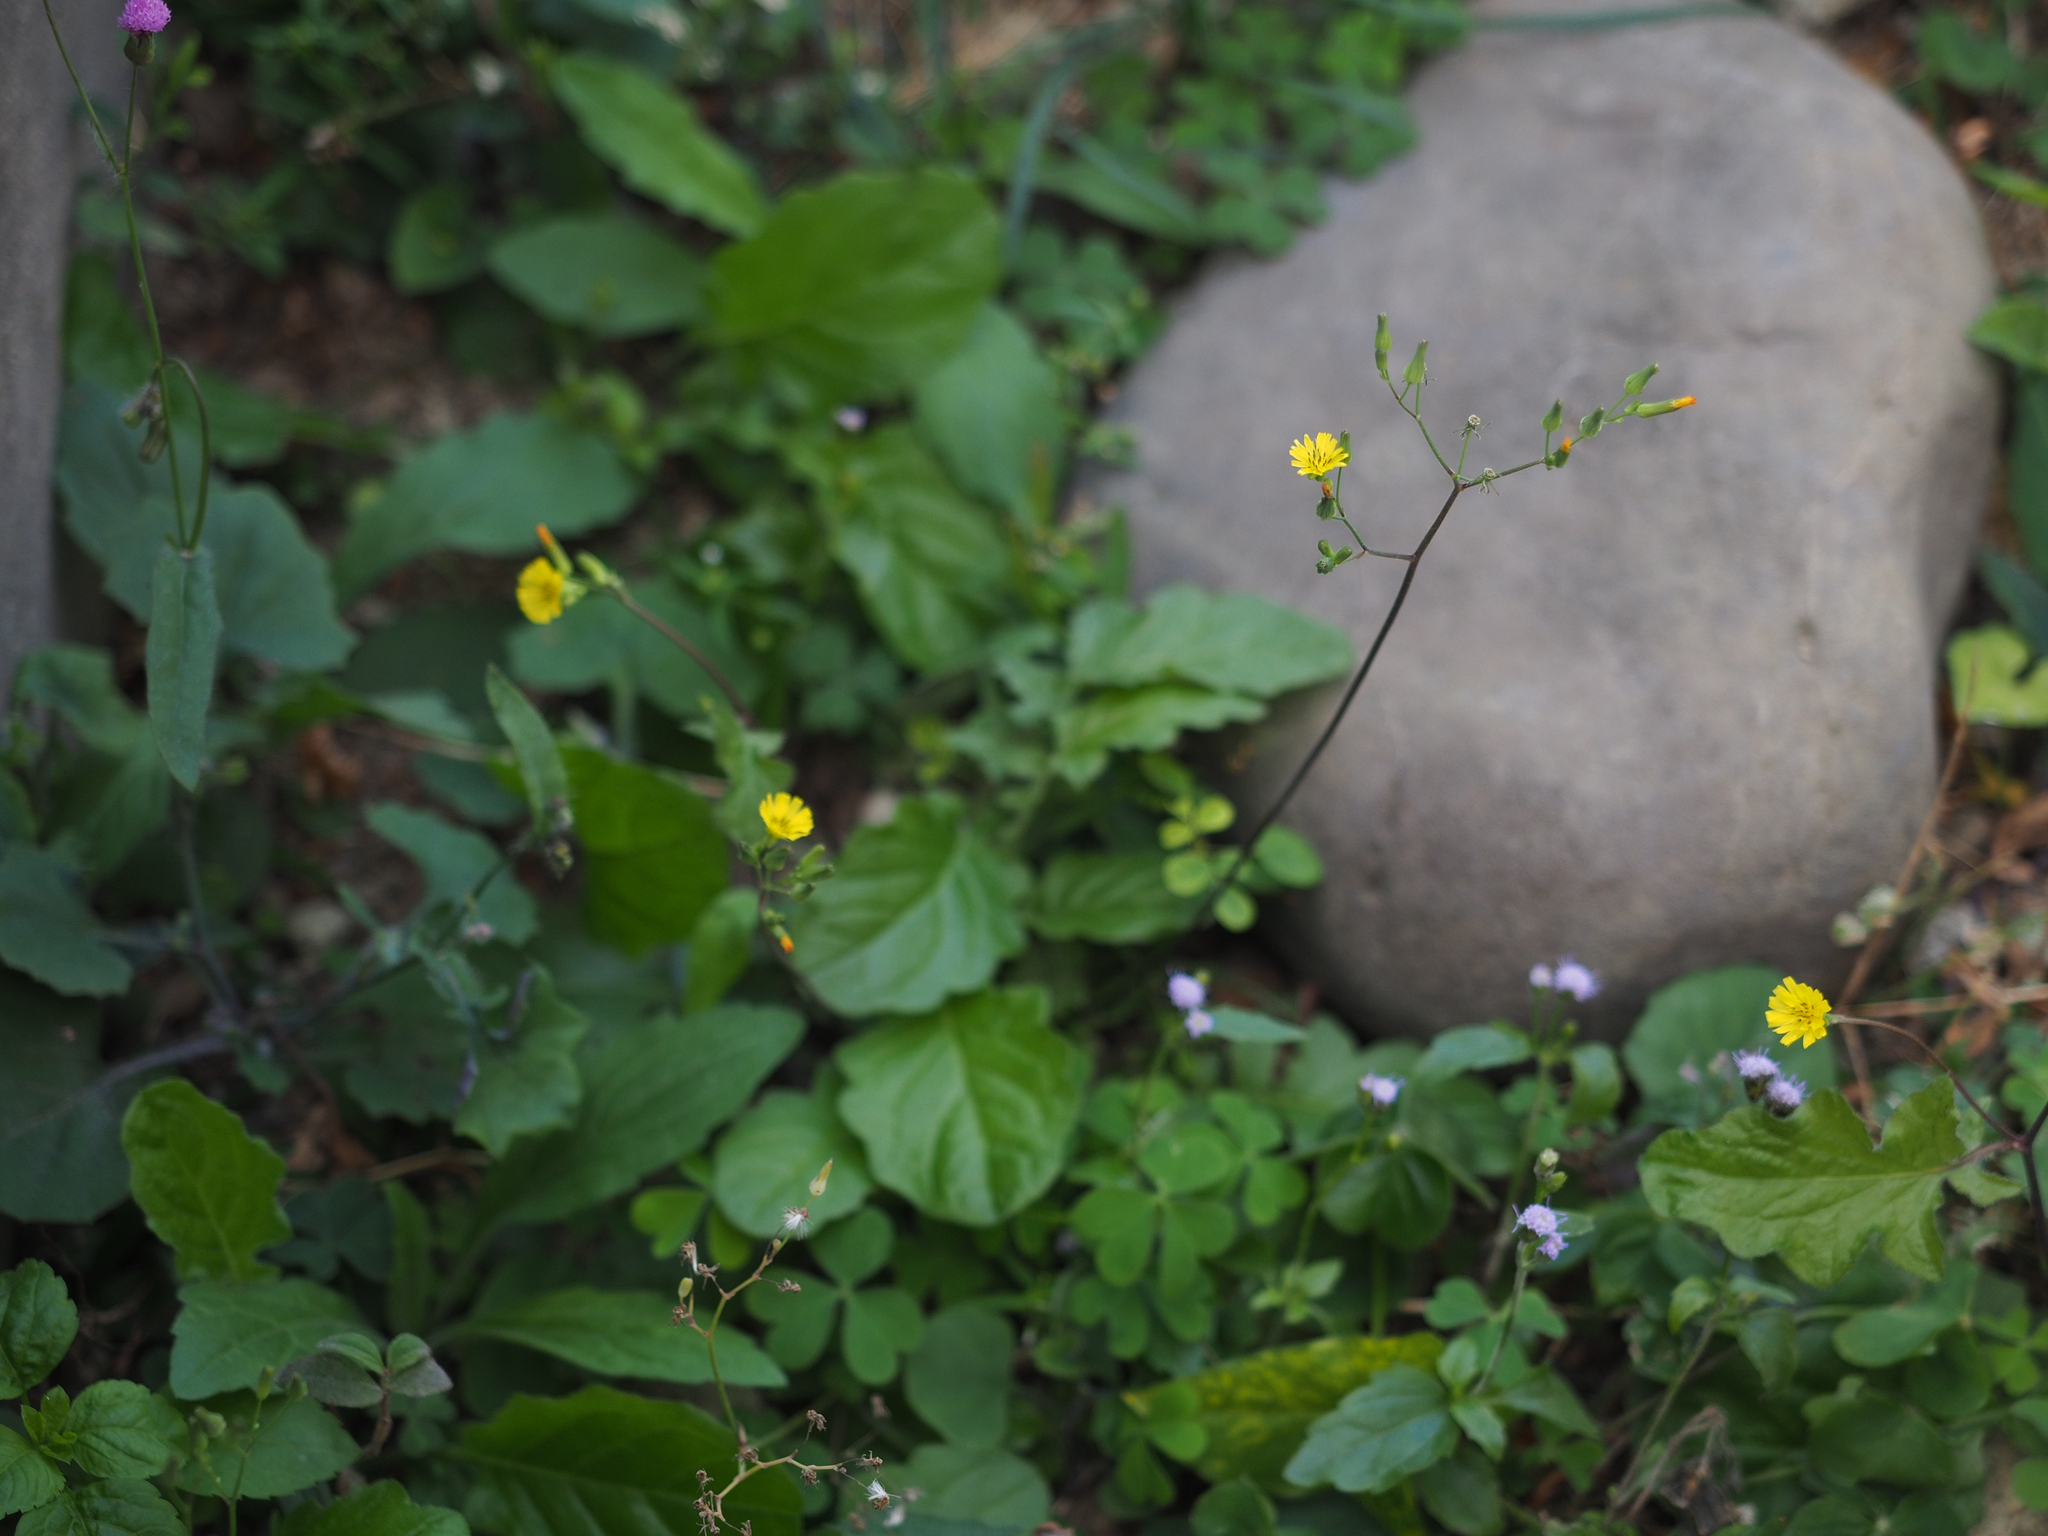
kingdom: Plantae
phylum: Tracheophyta
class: Magnoliopsida
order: Asterales
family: Asteraceae
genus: Youngia
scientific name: Youngia japonica
